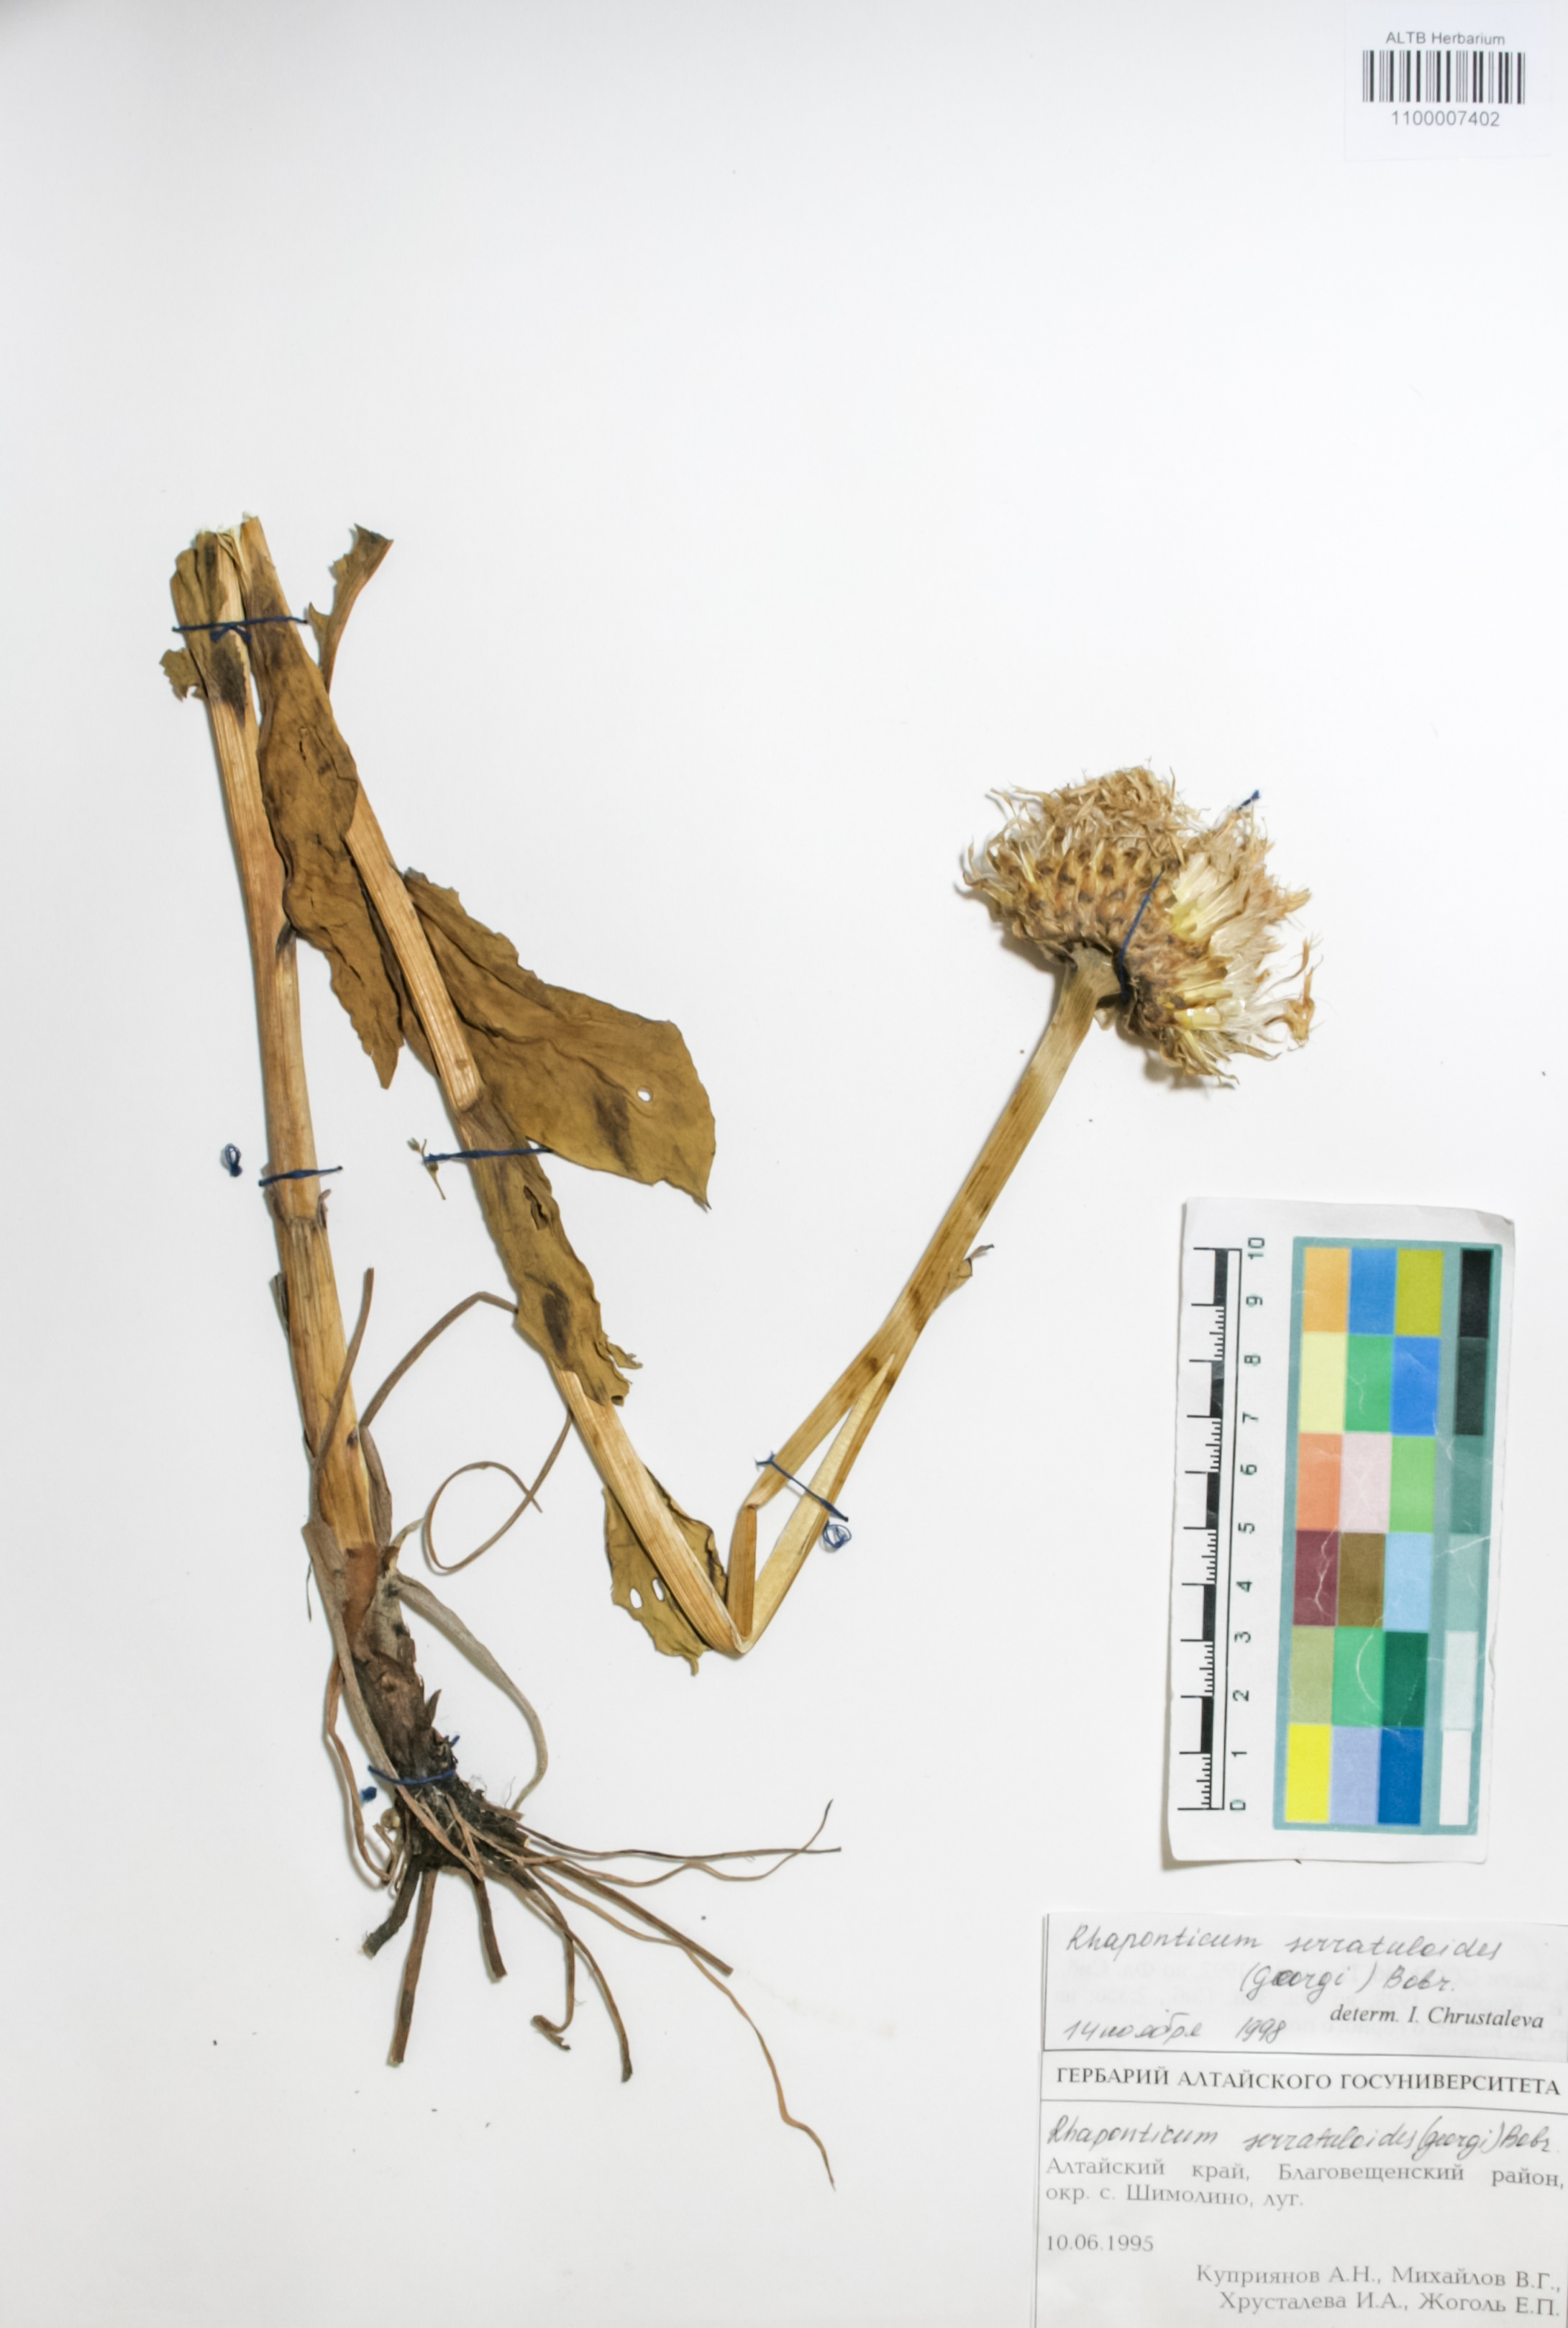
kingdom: Plantae
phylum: Tracheophyta
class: Magnoliopsida
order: Asterales
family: Asteraceae
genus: Leuzea
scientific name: Leuzea altaica
